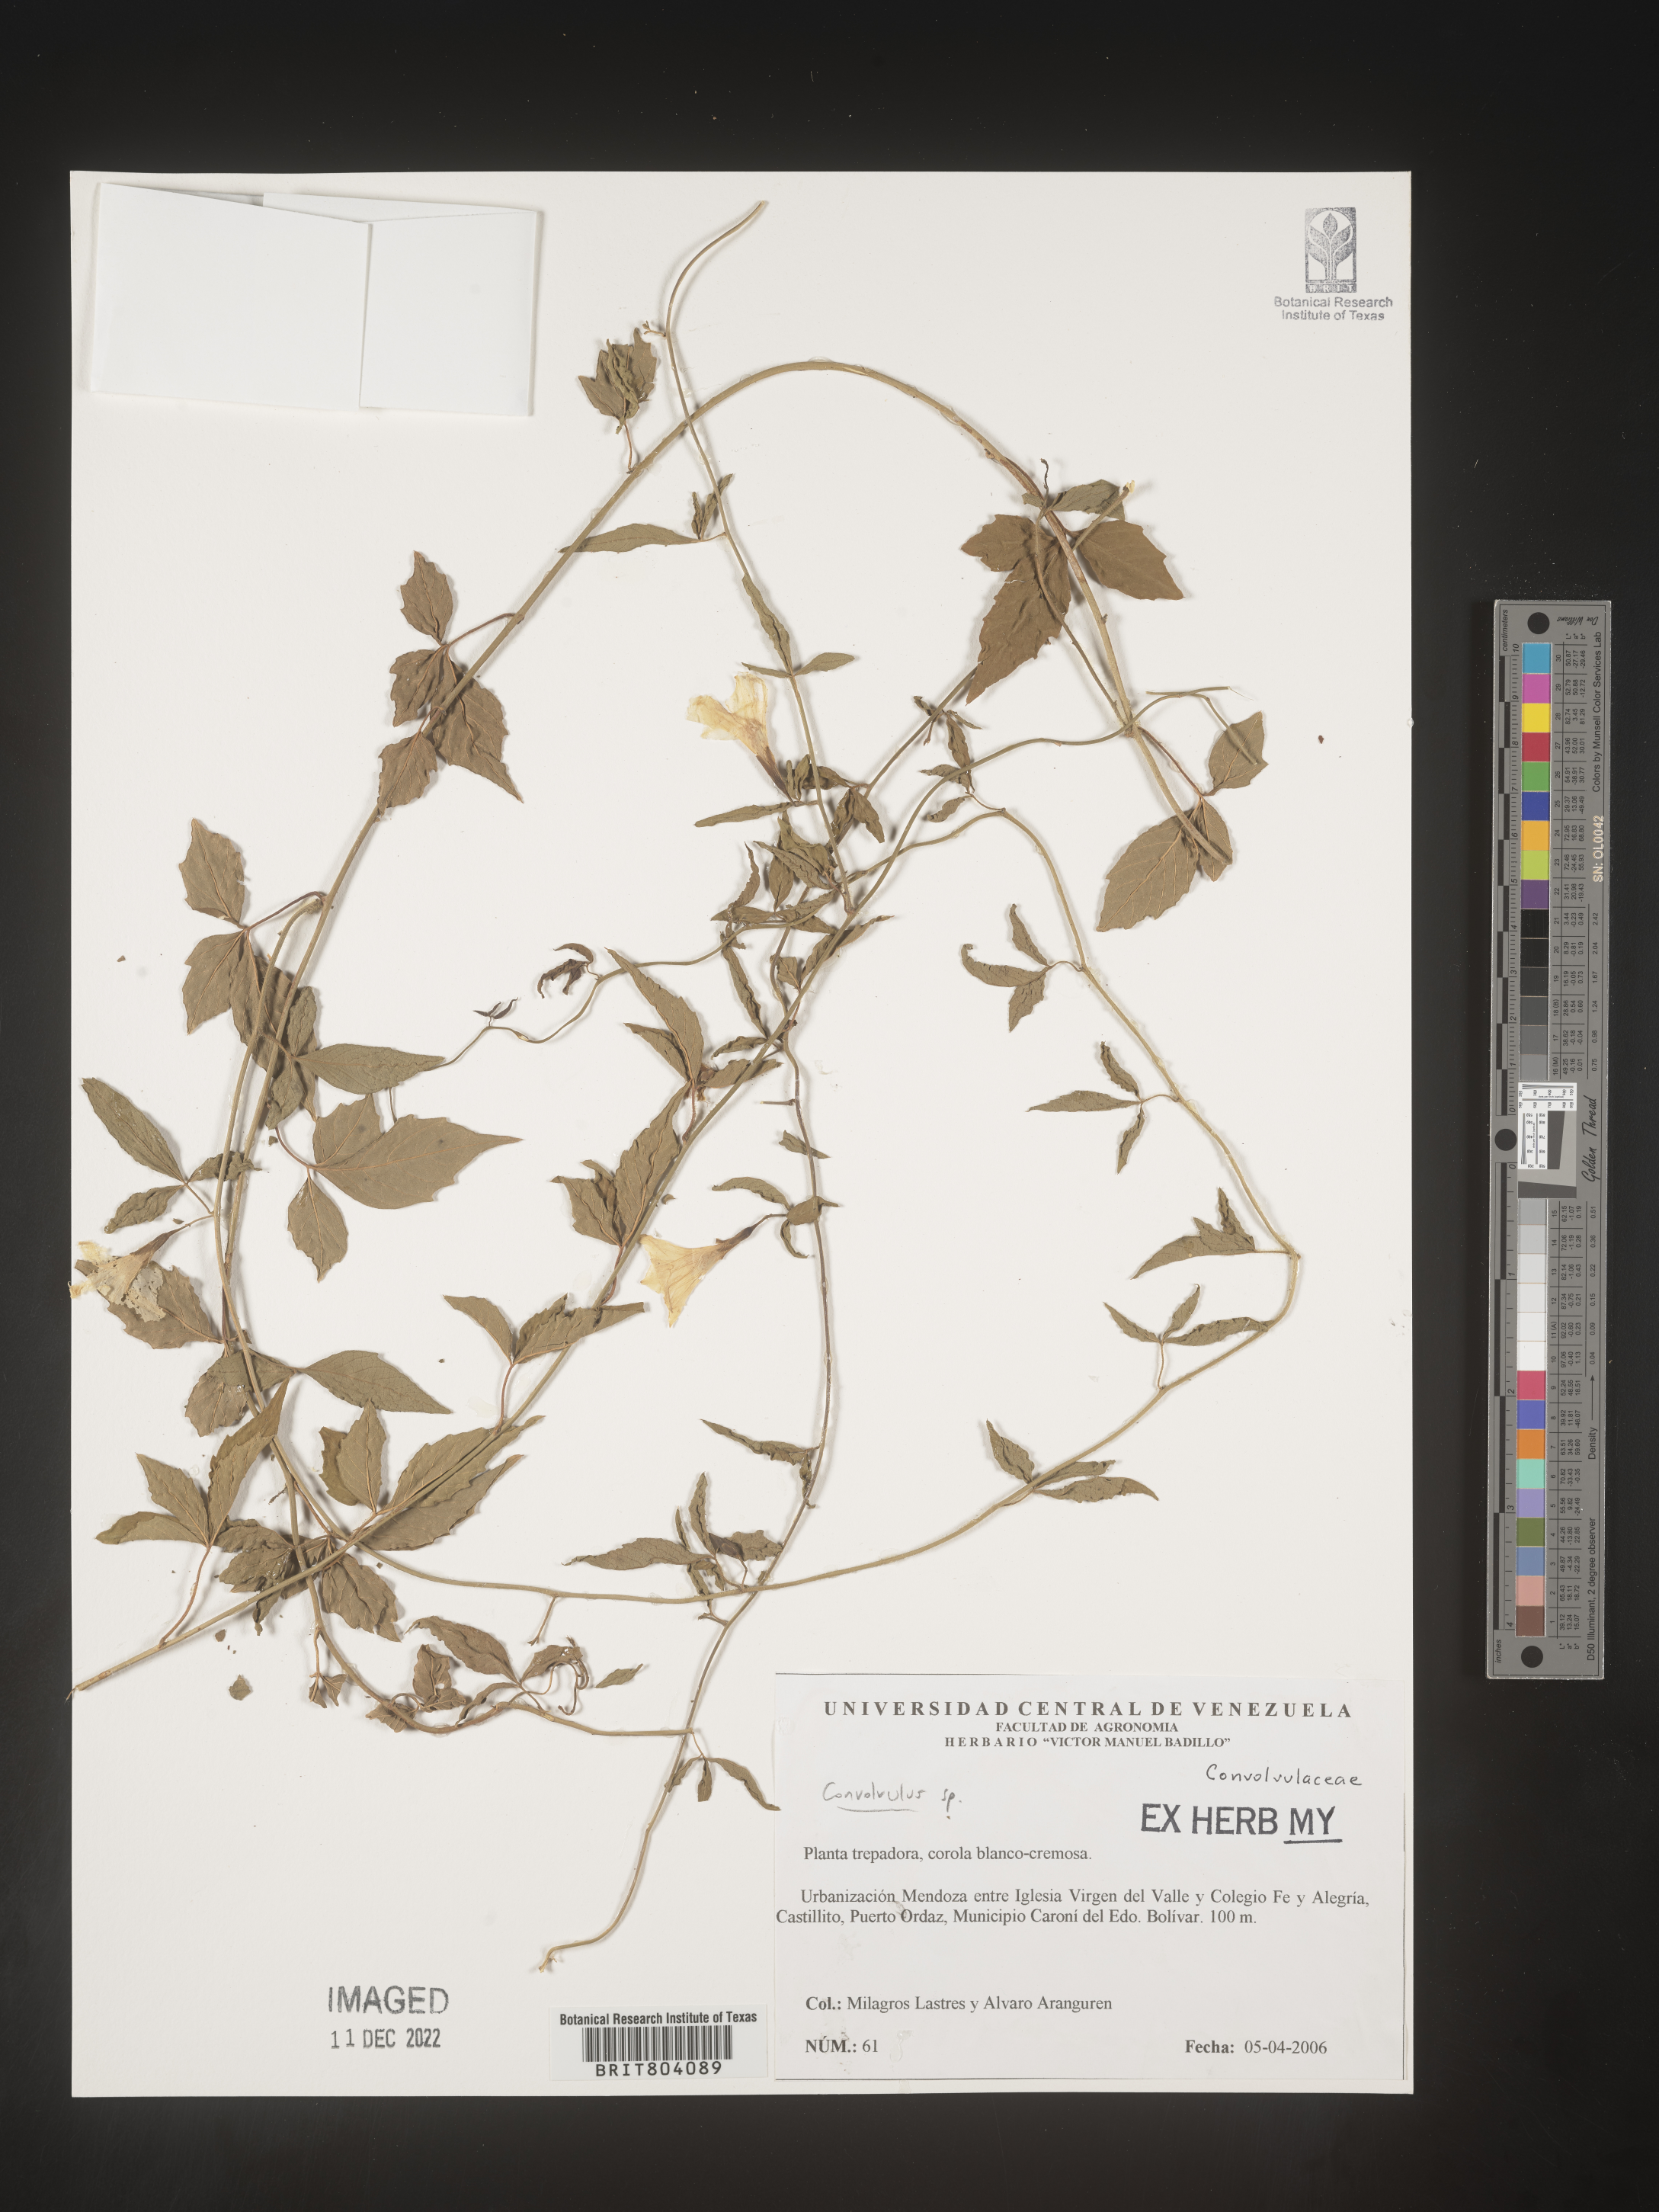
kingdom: Plantae
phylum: Tracheophyta
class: Magnoliopsida
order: Solanales
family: Convolvulaceae
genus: Convolvulus
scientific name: Convolvulus
